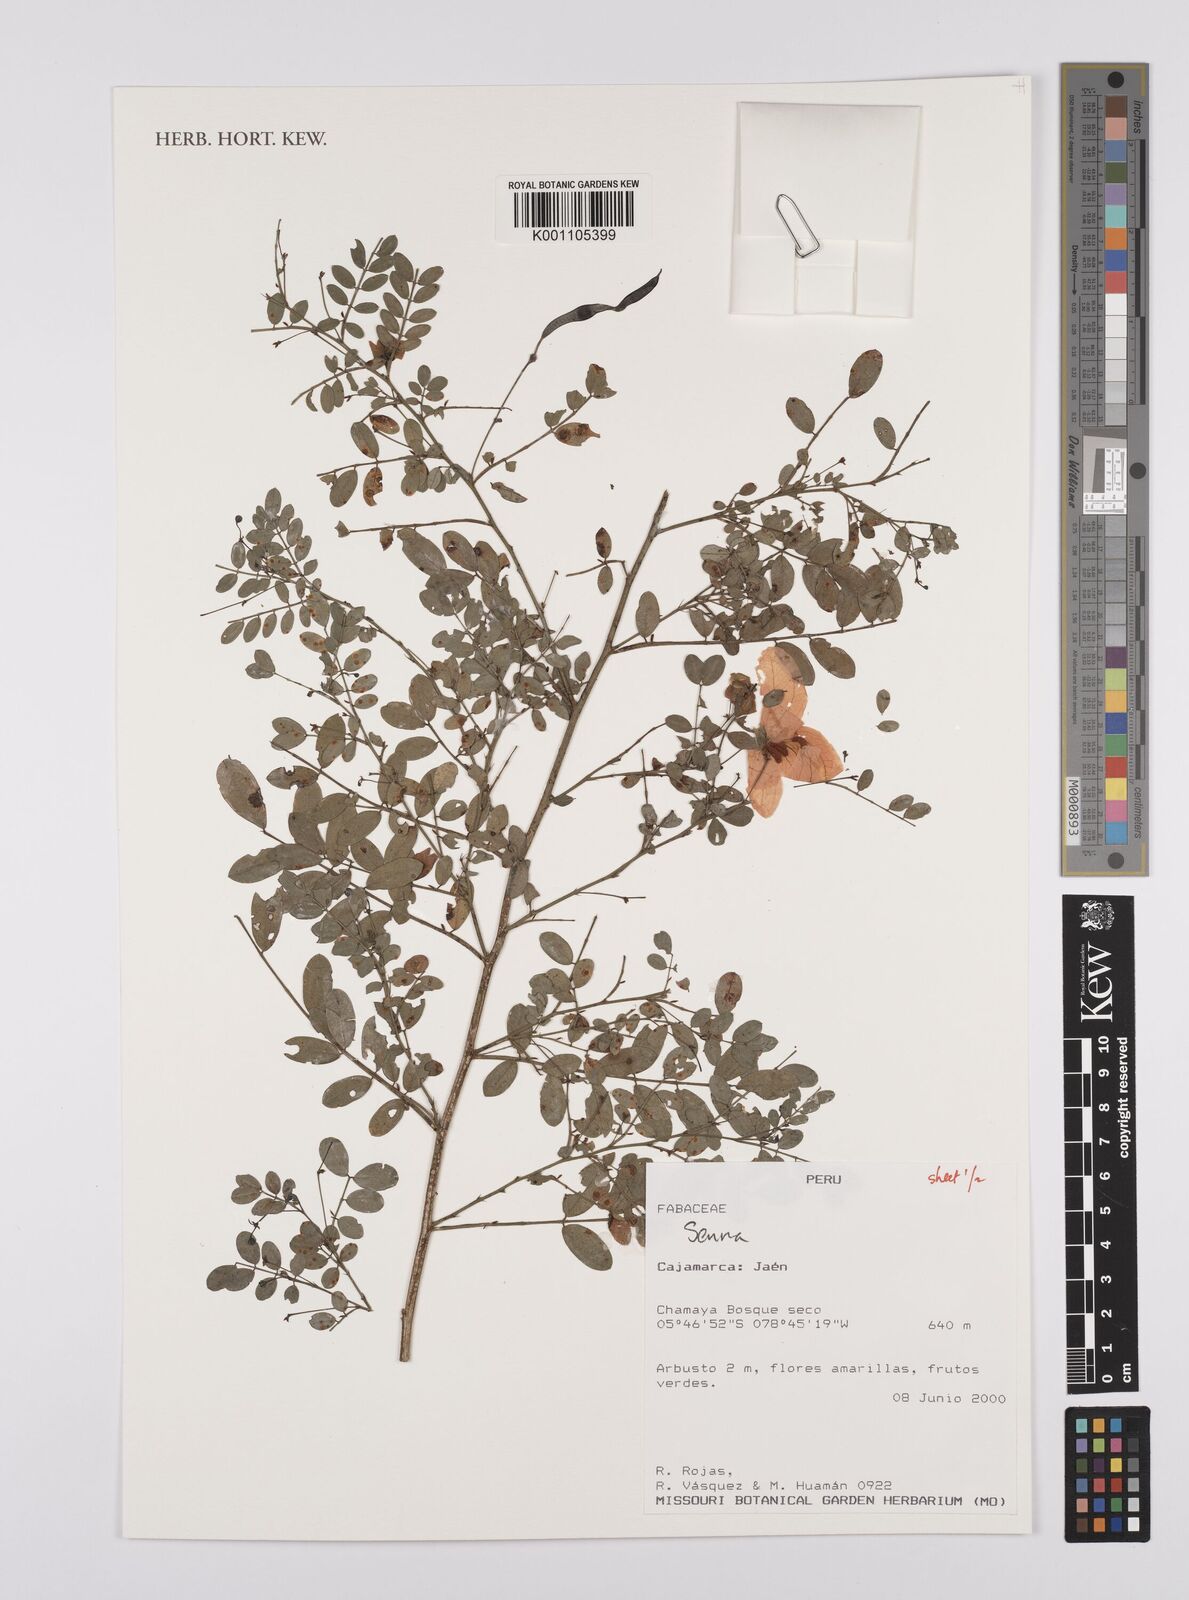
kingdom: Plantae
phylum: Tracheophyta
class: Magnoliopsida
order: Fabales
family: Fabaceae
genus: Senna
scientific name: Senna
